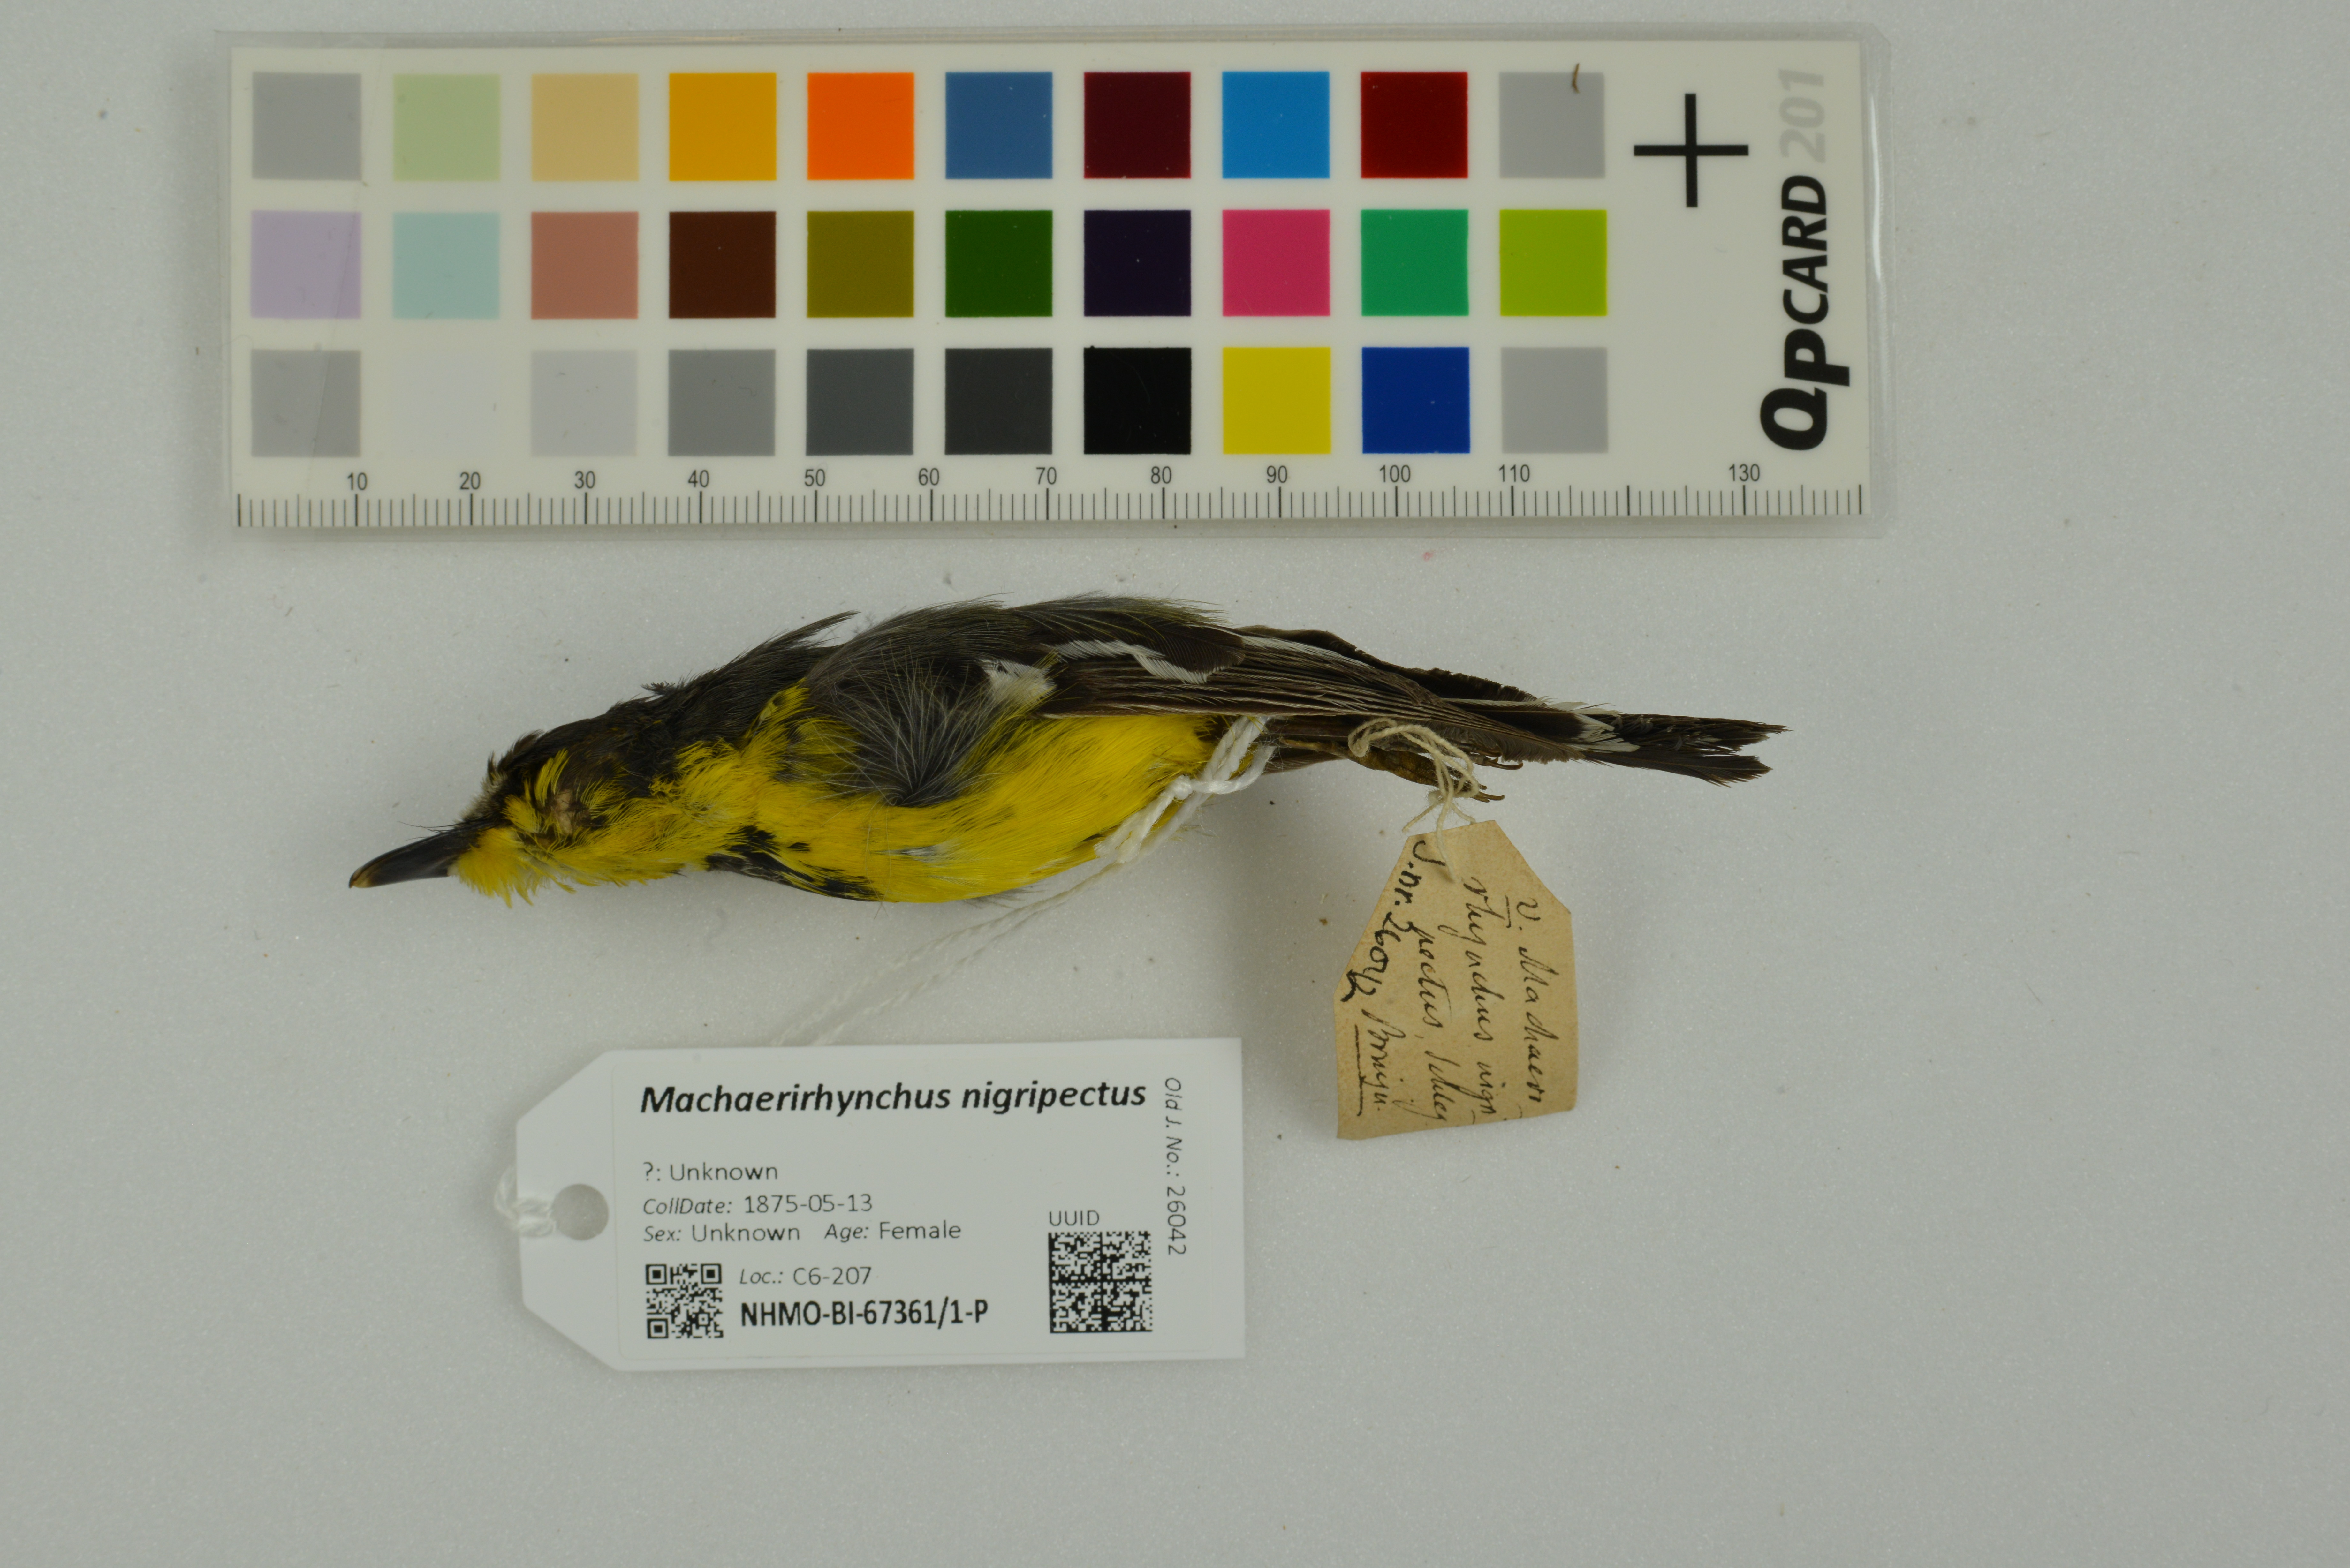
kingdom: Animalia
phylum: Chordata
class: Aves
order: Passeriformes
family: Machaerirhynchidae
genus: Machaerirhynchus
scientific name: Machaerirhynchus nigripectus
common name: Black-breasted boatbill
